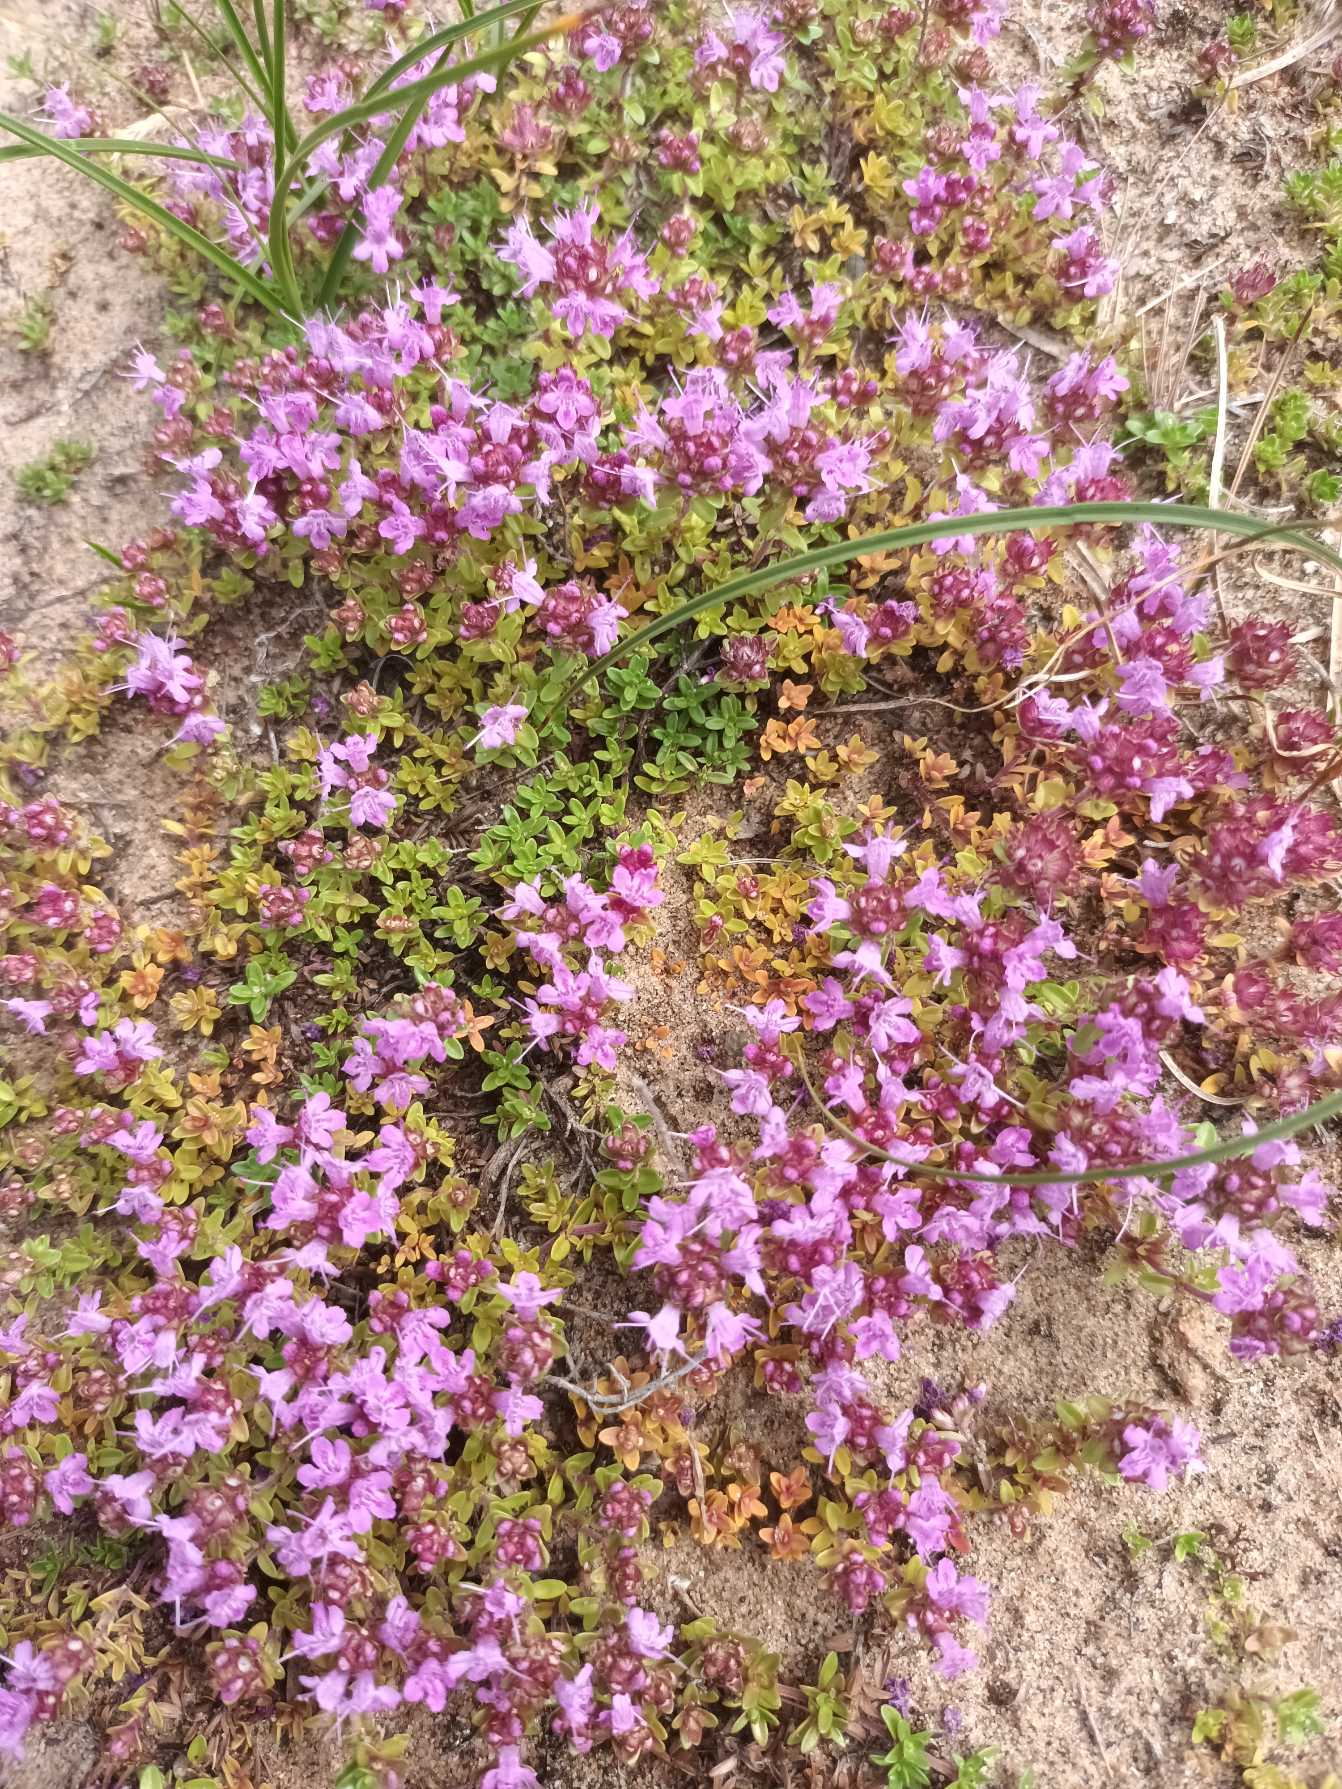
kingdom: Plantae
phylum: Tracheophyta
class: Magnoliopsida
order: Lamiales
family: Lamiaceae
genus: Thymus
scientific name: Thymus serpyllum
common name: Smalbladet timian
